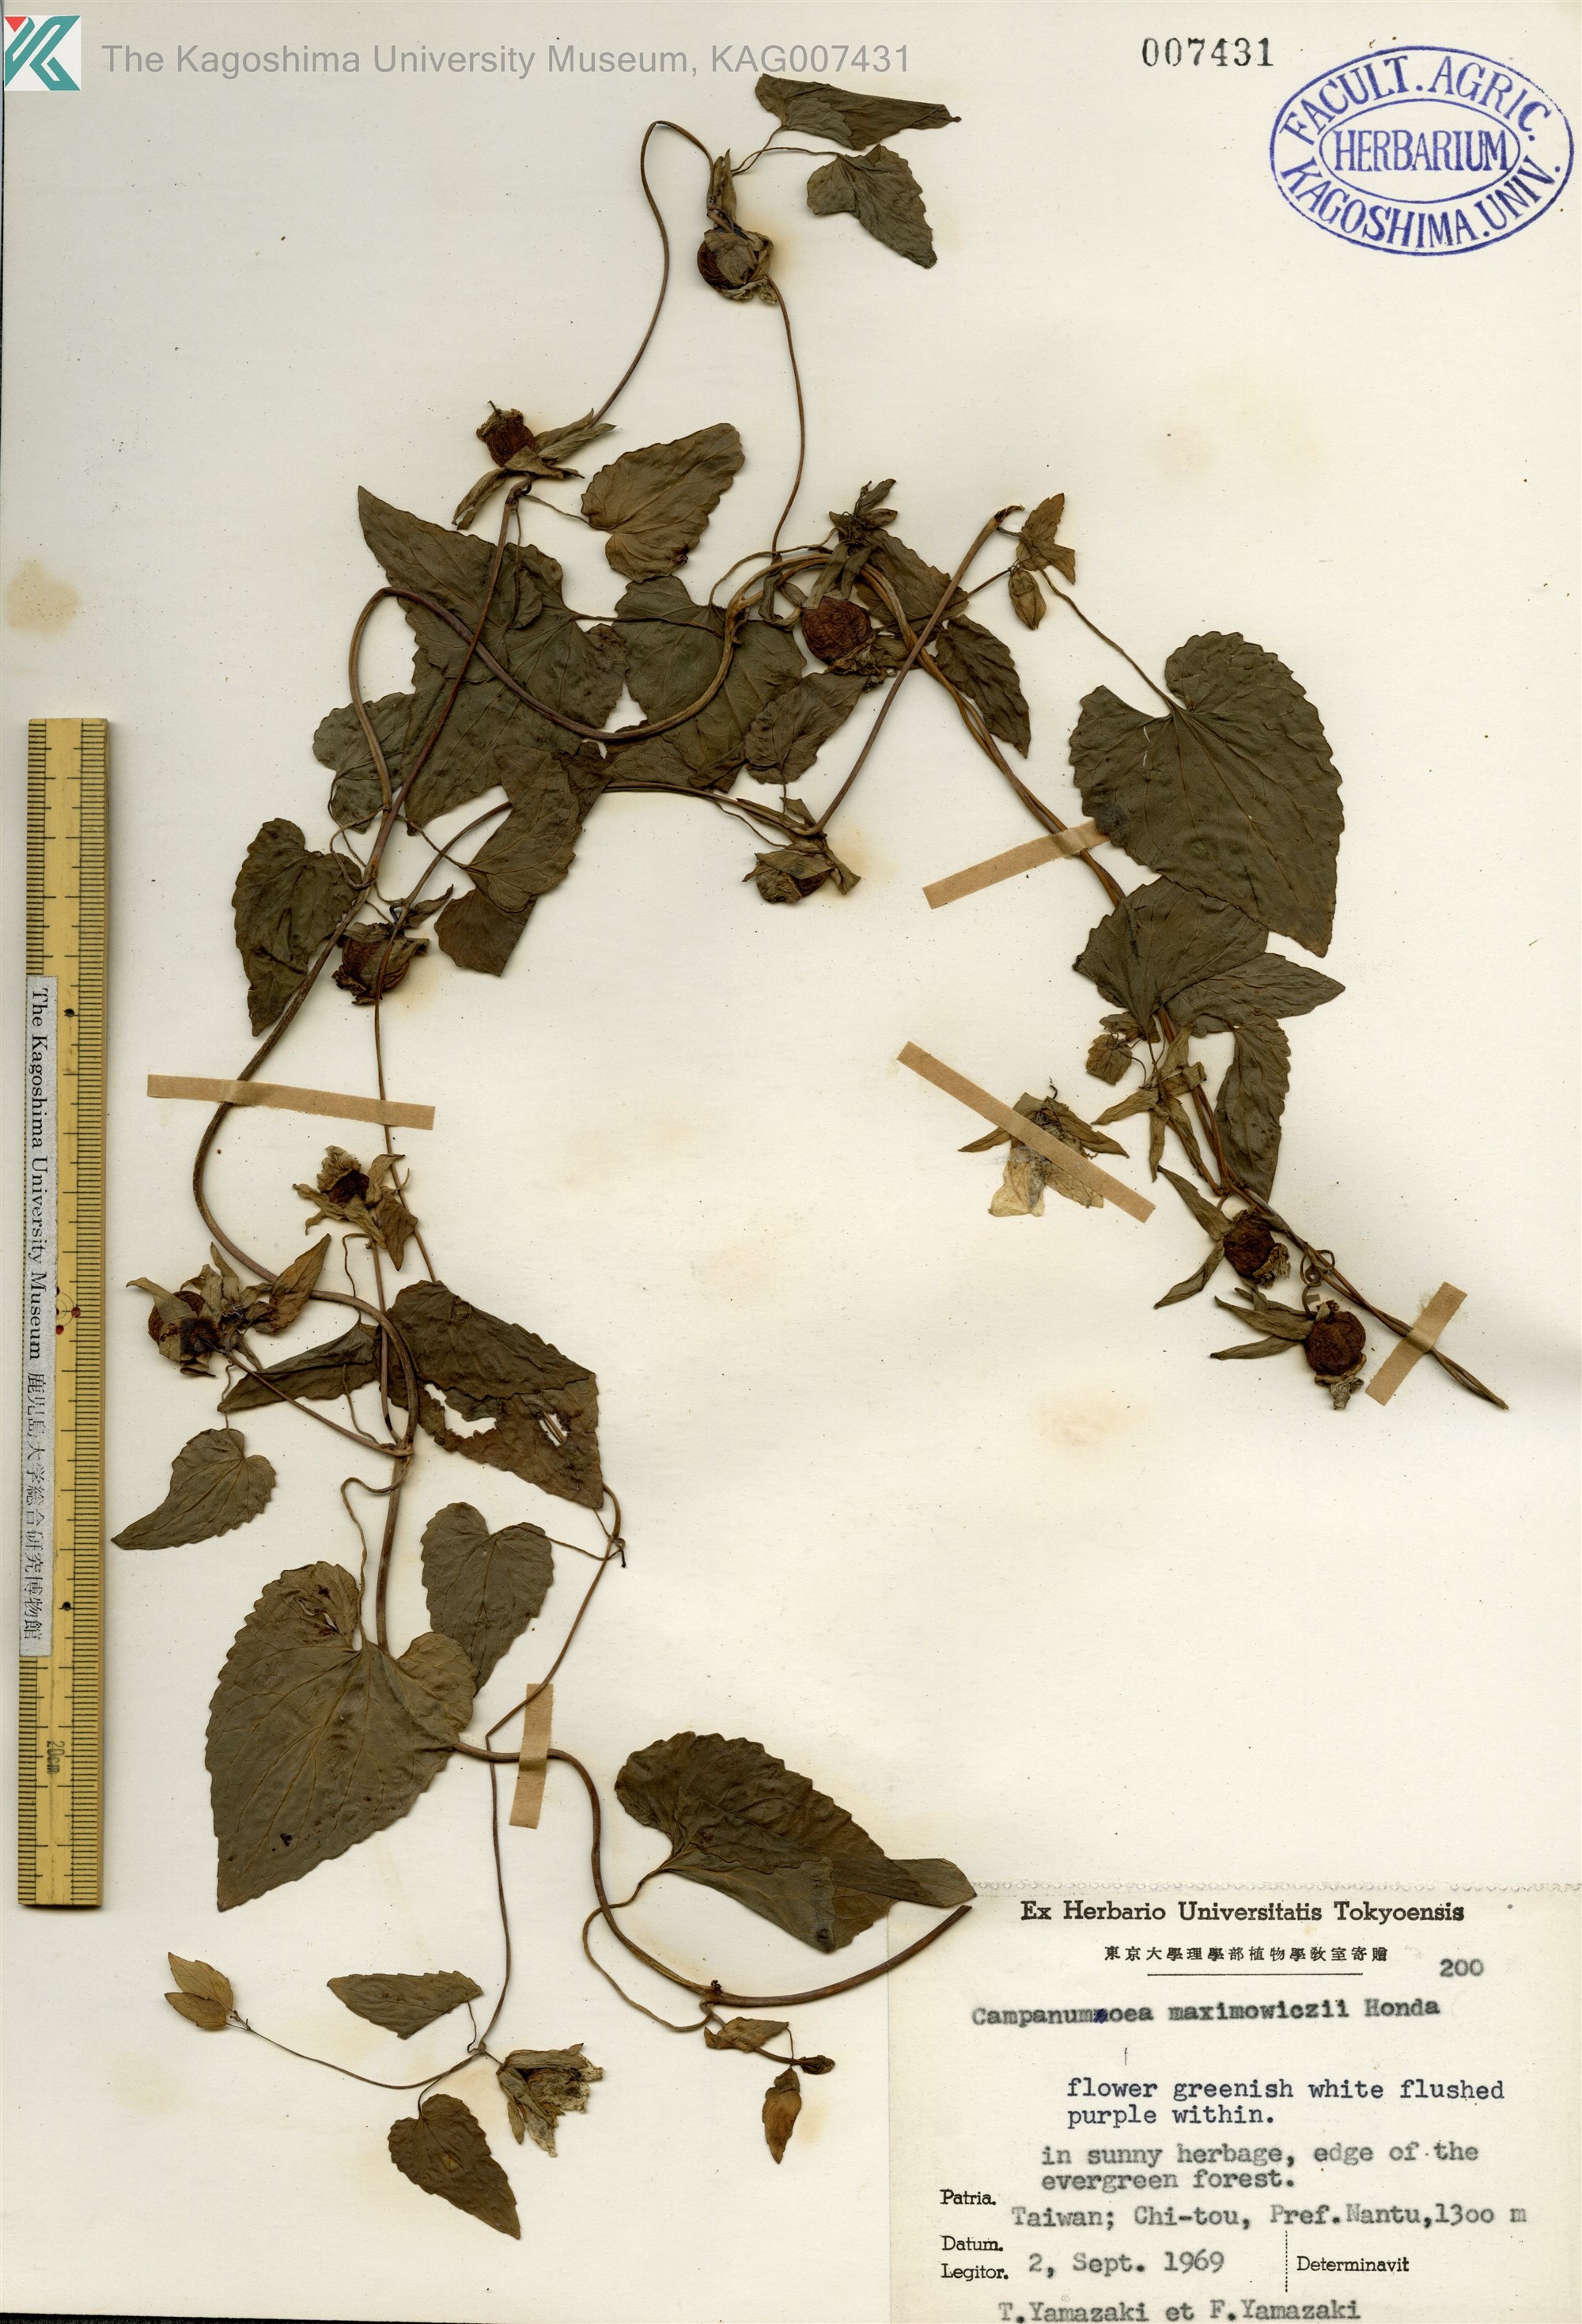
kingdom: Plantae
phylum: Tracheophyta
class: Magnoliopsida
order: Asterales
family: Campanulaceae
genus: Codonopsis
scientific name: Codonopsis javanica
